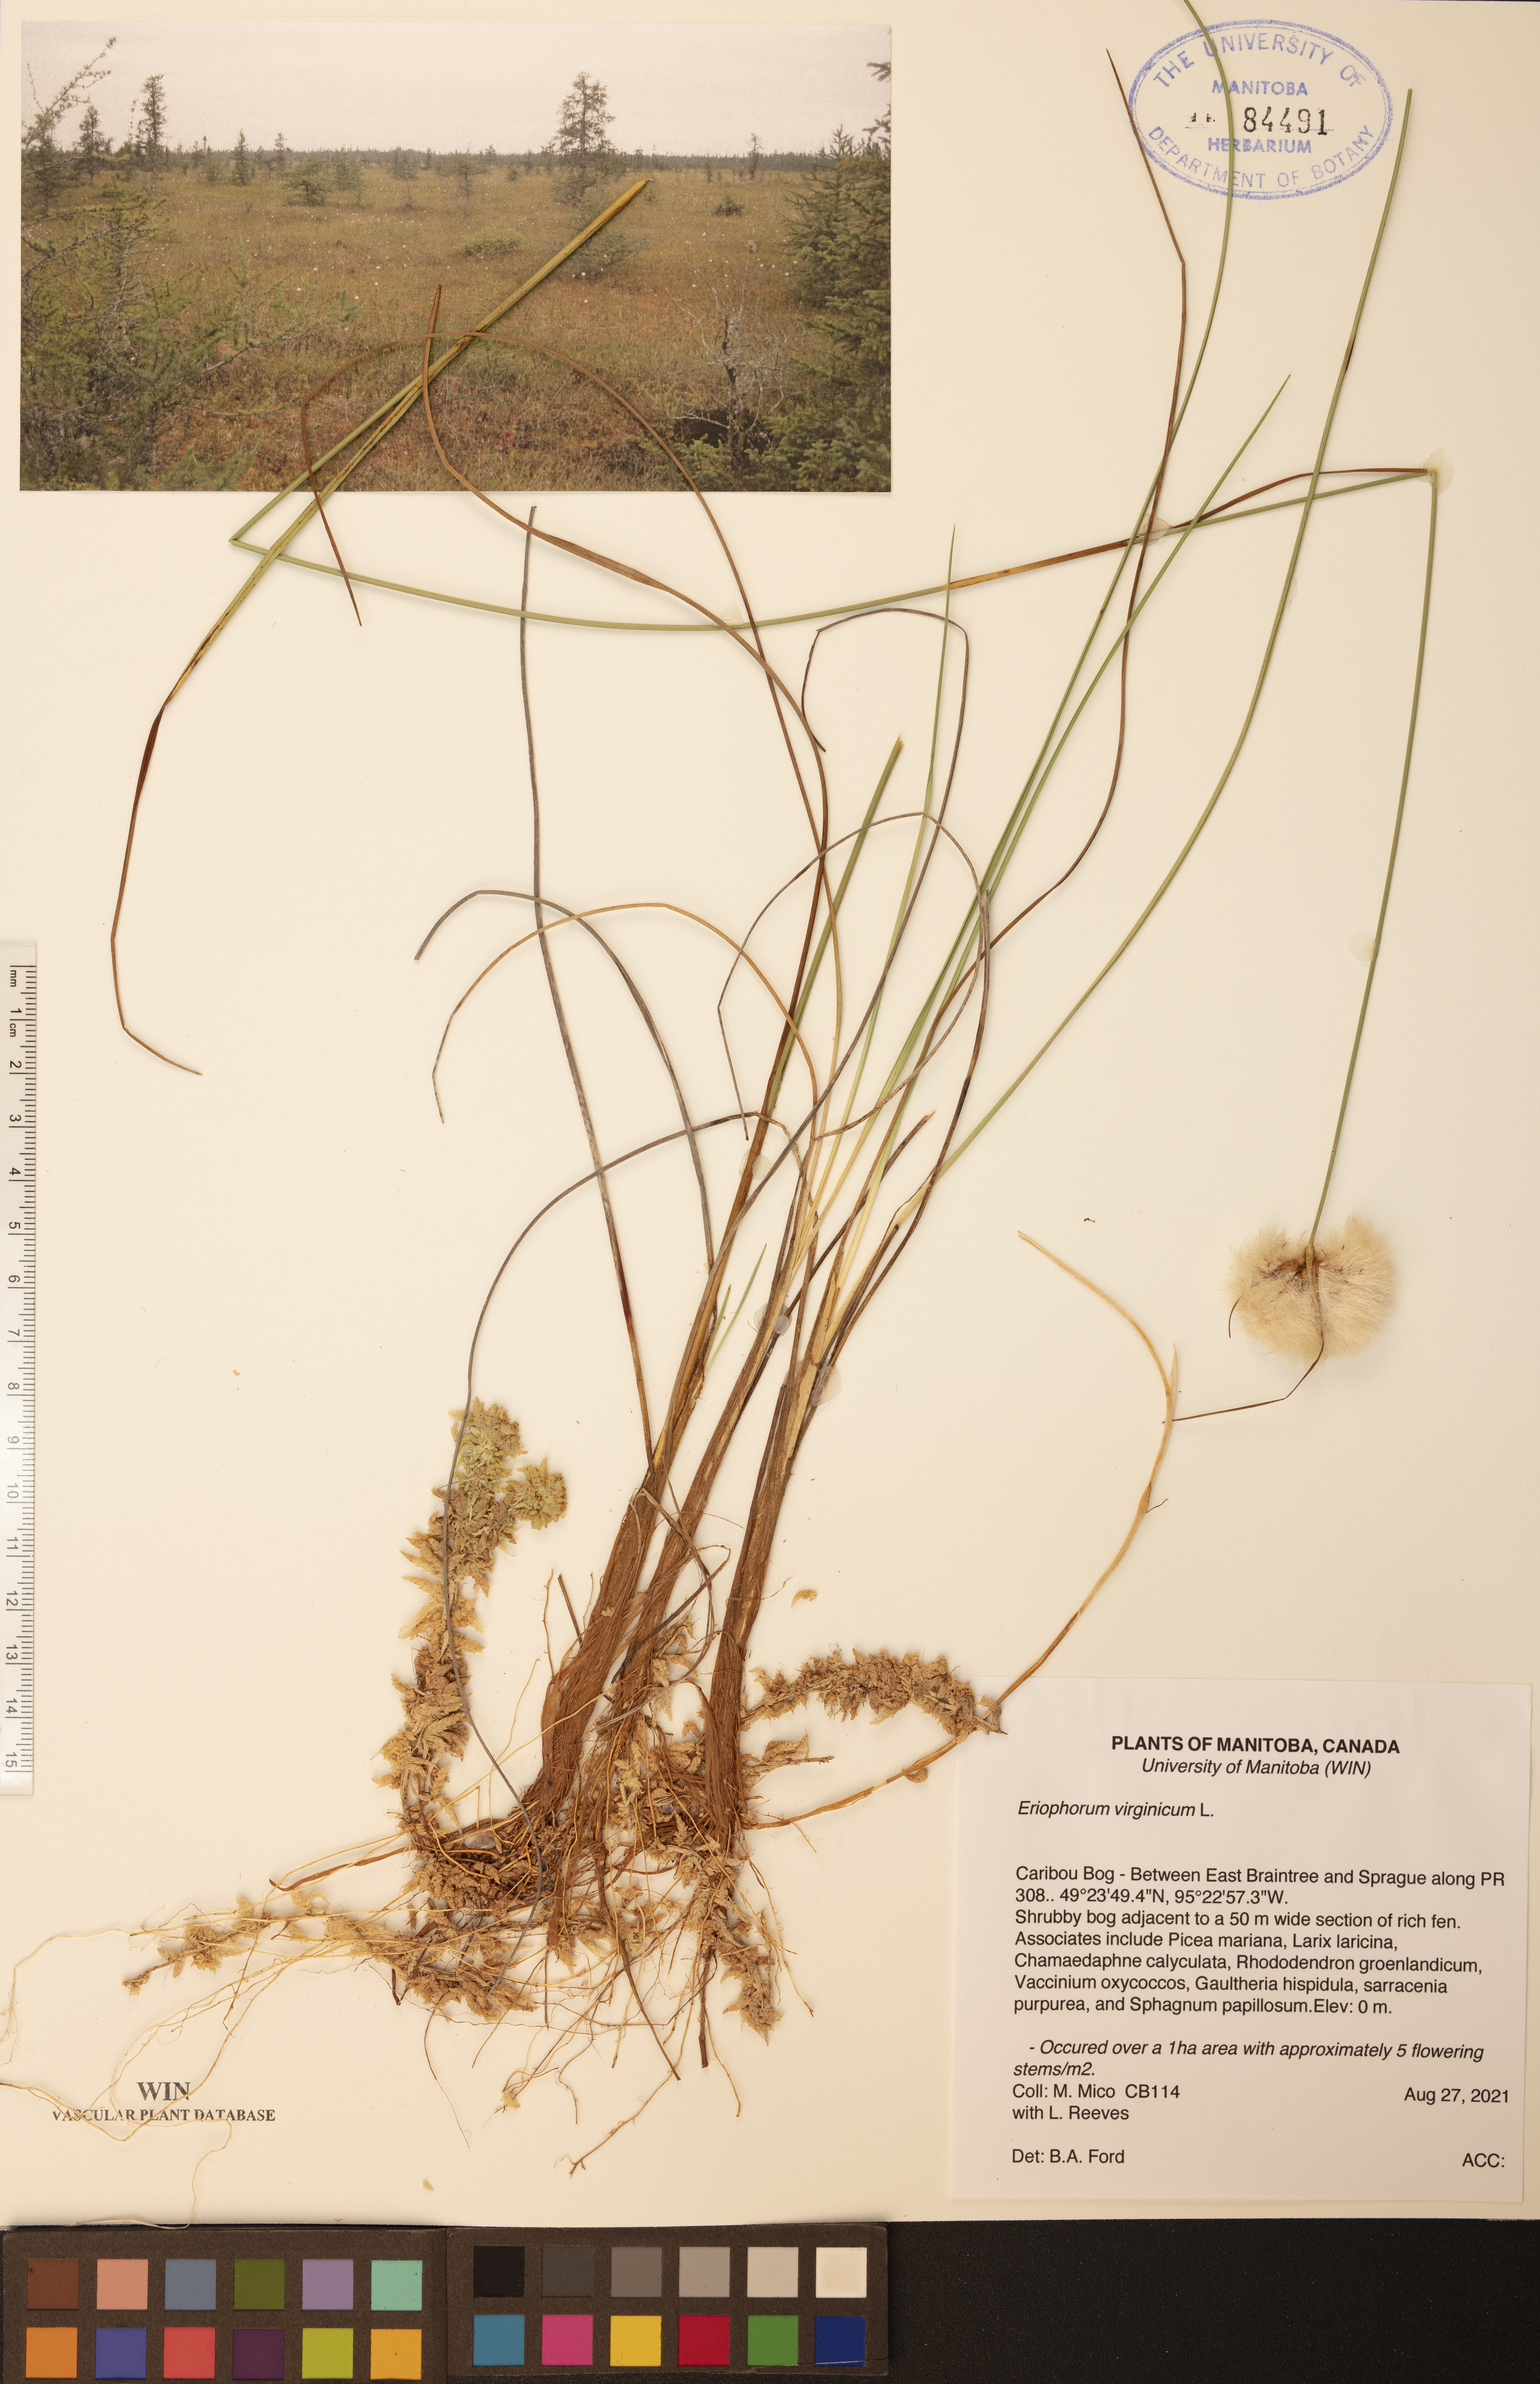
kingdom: Plantae
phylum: Tracheophyta
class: Liliopsida
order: Poales
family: Cyperaceae
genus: Eriophorum
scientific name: Eriophorum virginicum
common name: Tawny cottongrass
